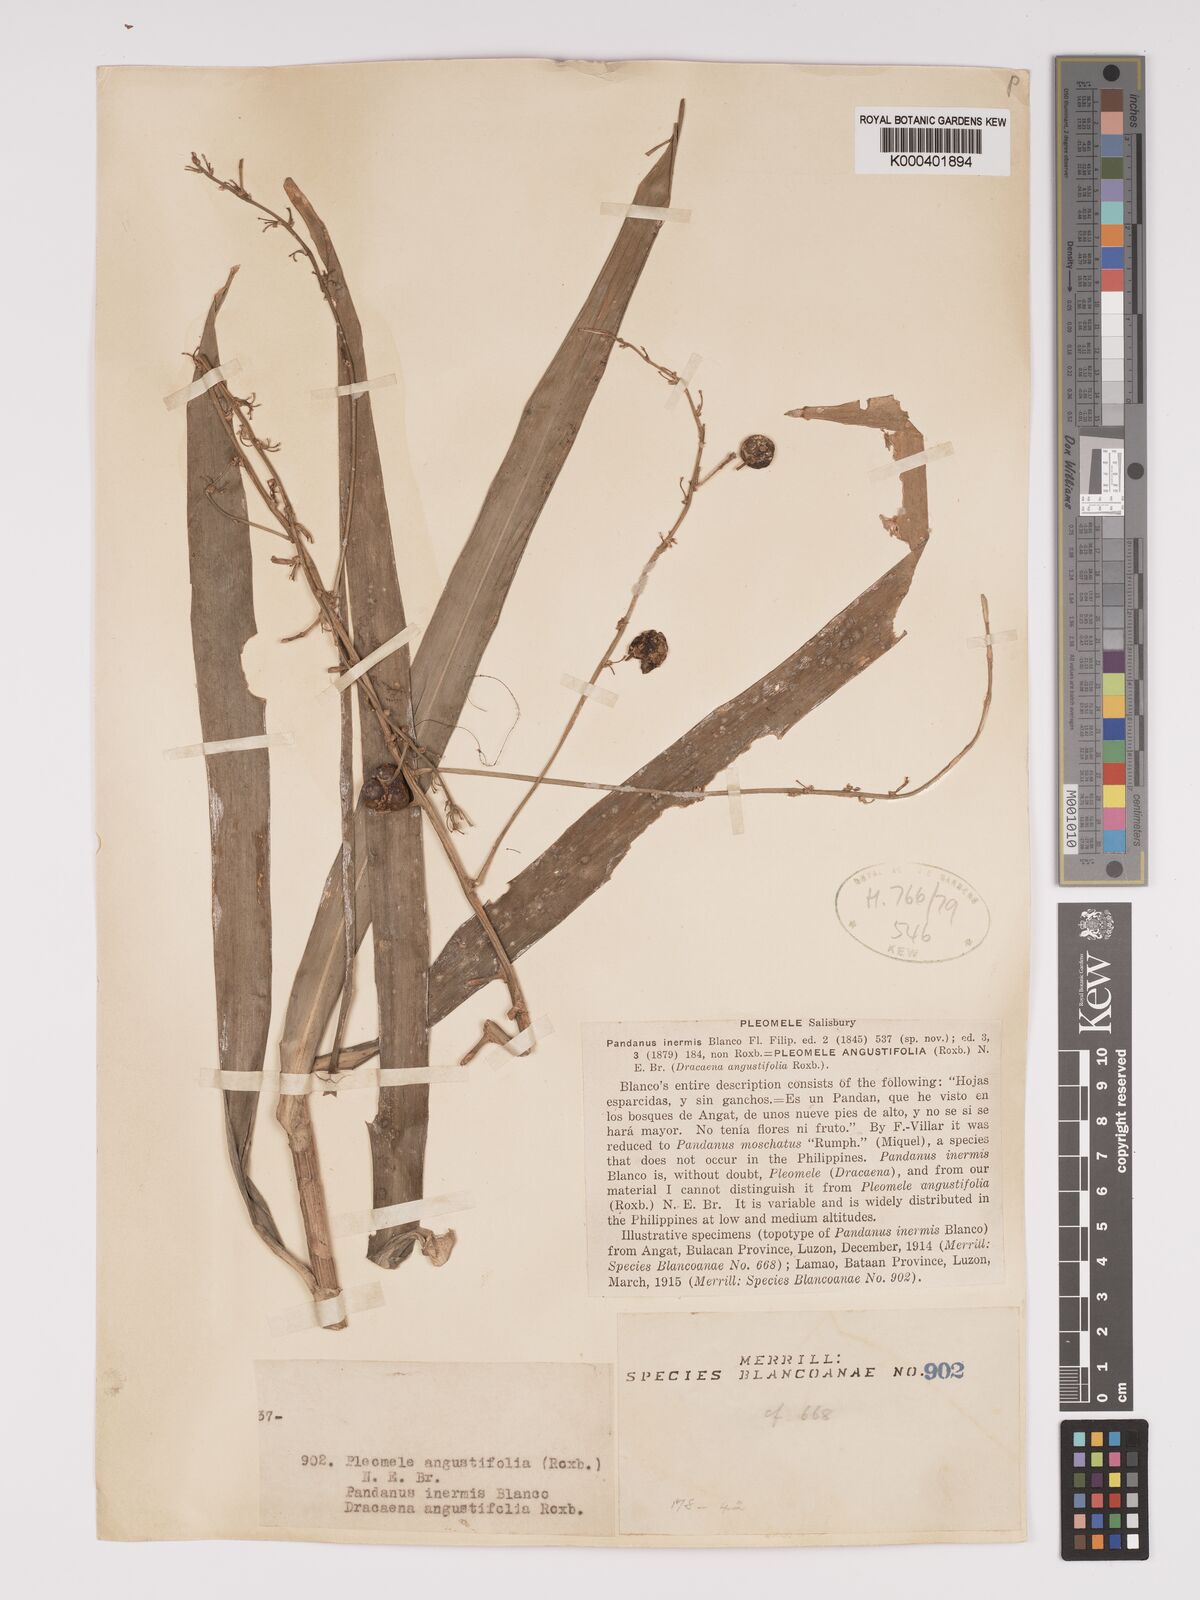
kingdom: Plantae
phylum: Tracheophyta
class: Liliopsida
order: Asparagales
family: Asparagaceae
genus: Dracaena
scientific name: Dracaena angustifolia
